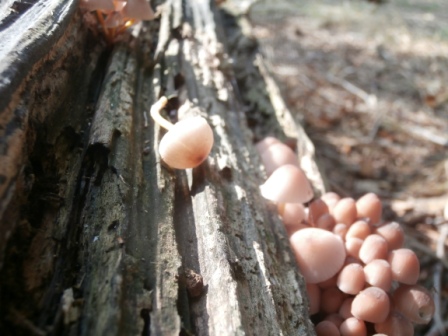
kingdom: Fungi
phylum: Basidiomycota
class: Agaricomycetes
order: Agaricales
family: Mycenaceae
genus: Mycena
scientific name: Mycena renati
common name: smuk huesvamp
